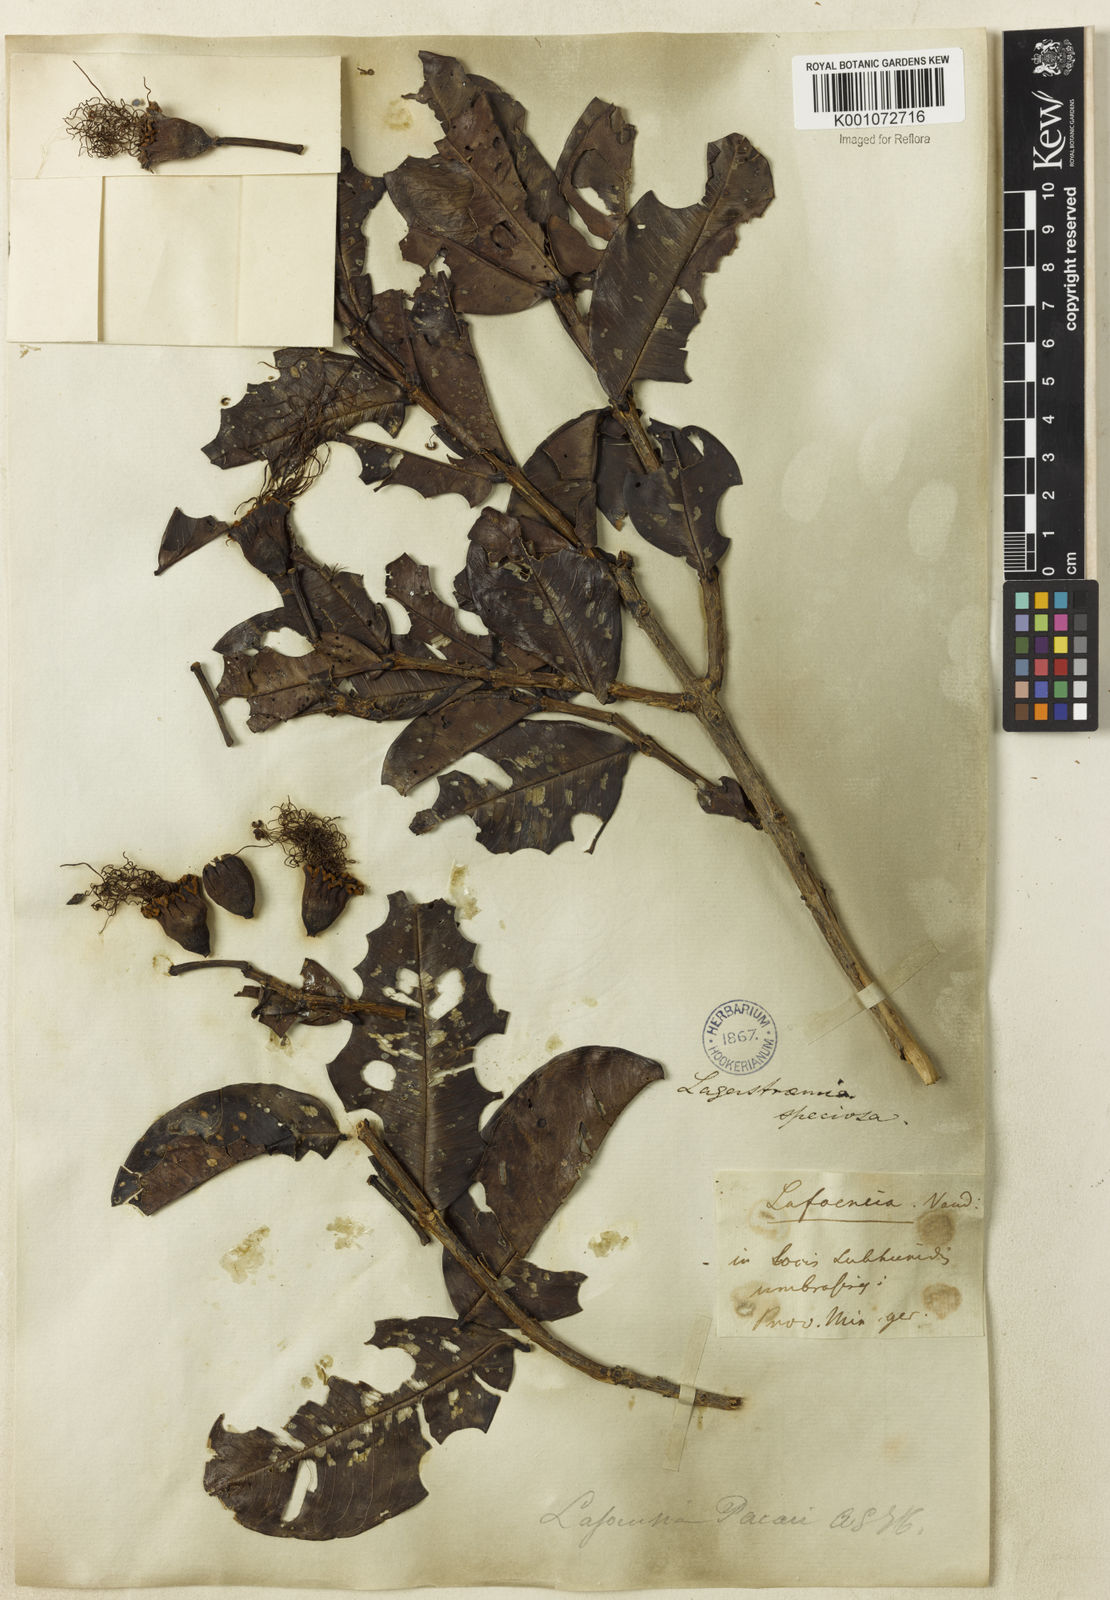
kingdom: Plantae
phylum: Tracheophyta
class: Magnoliopsida
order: Myrtales
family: Lythraceae
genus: Lafoensia
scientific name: Lafoensia pacari
